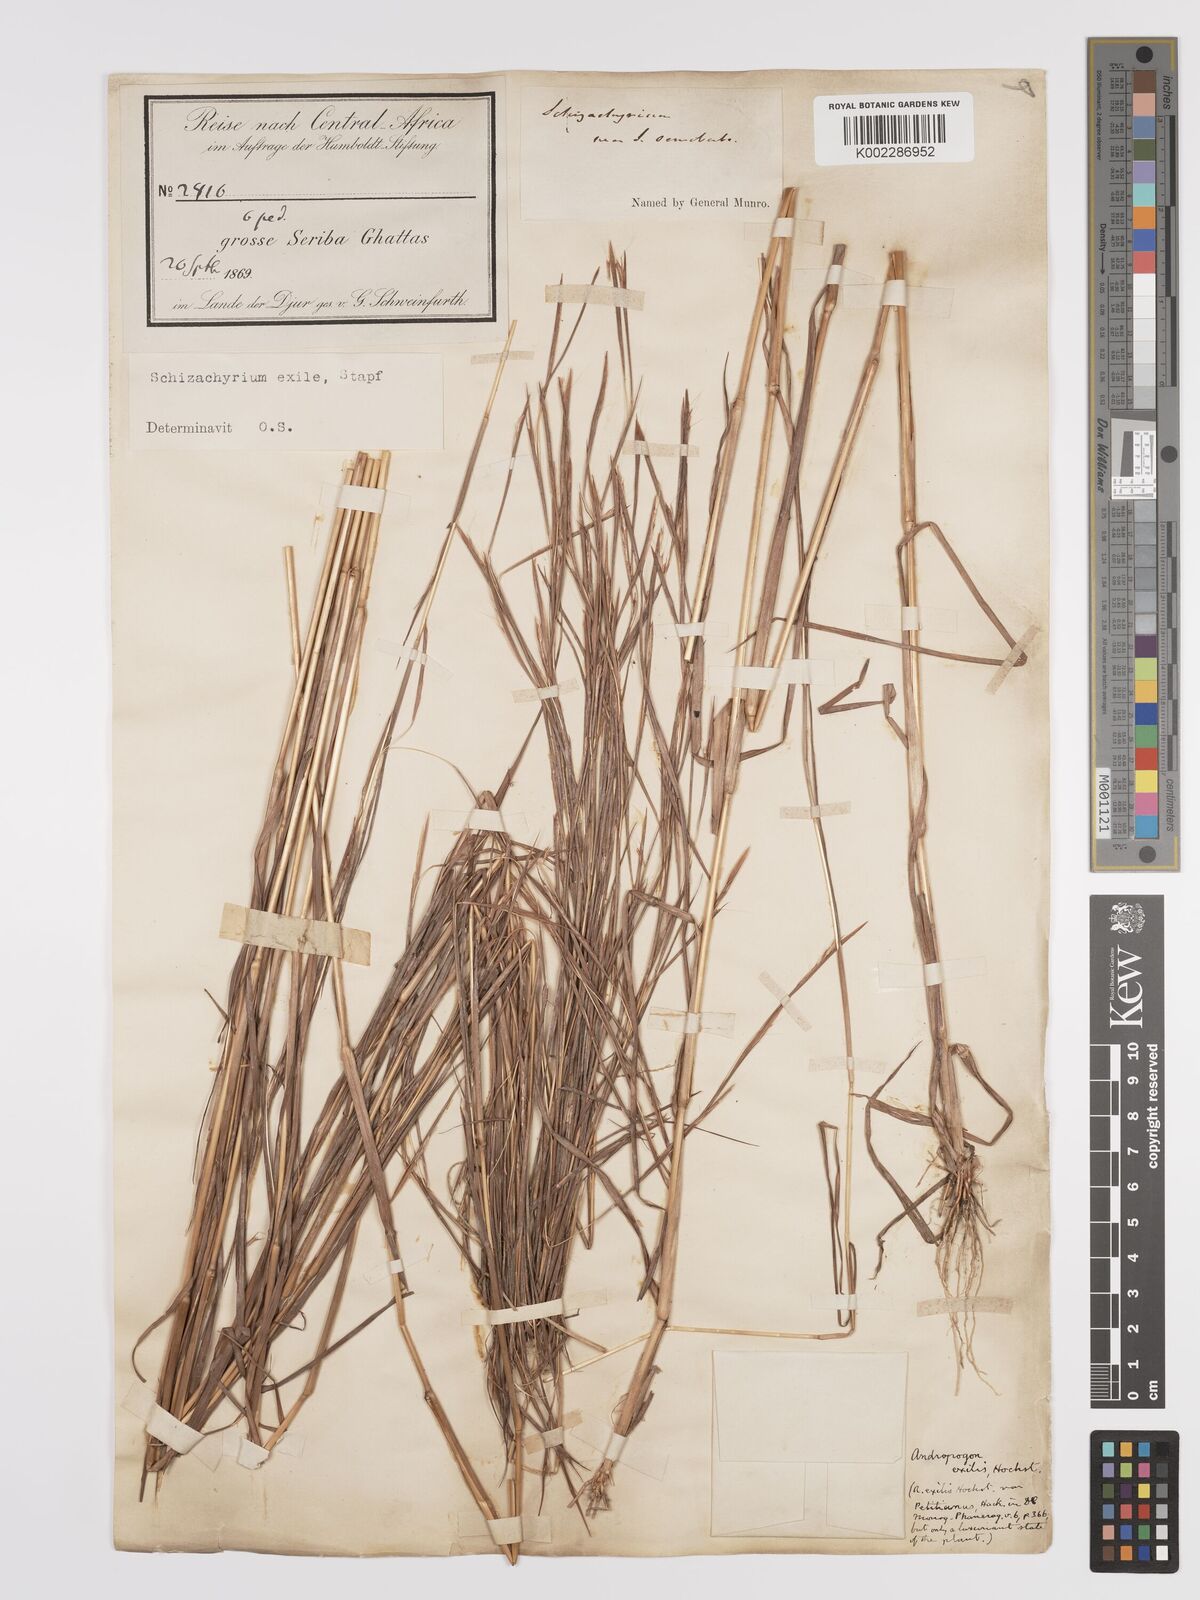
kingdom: Plantae
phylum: Tracheophyta
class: Liliopsida
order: Poales
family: Poaceae
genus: Schizachyrium
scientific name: Schizachyrium exile
